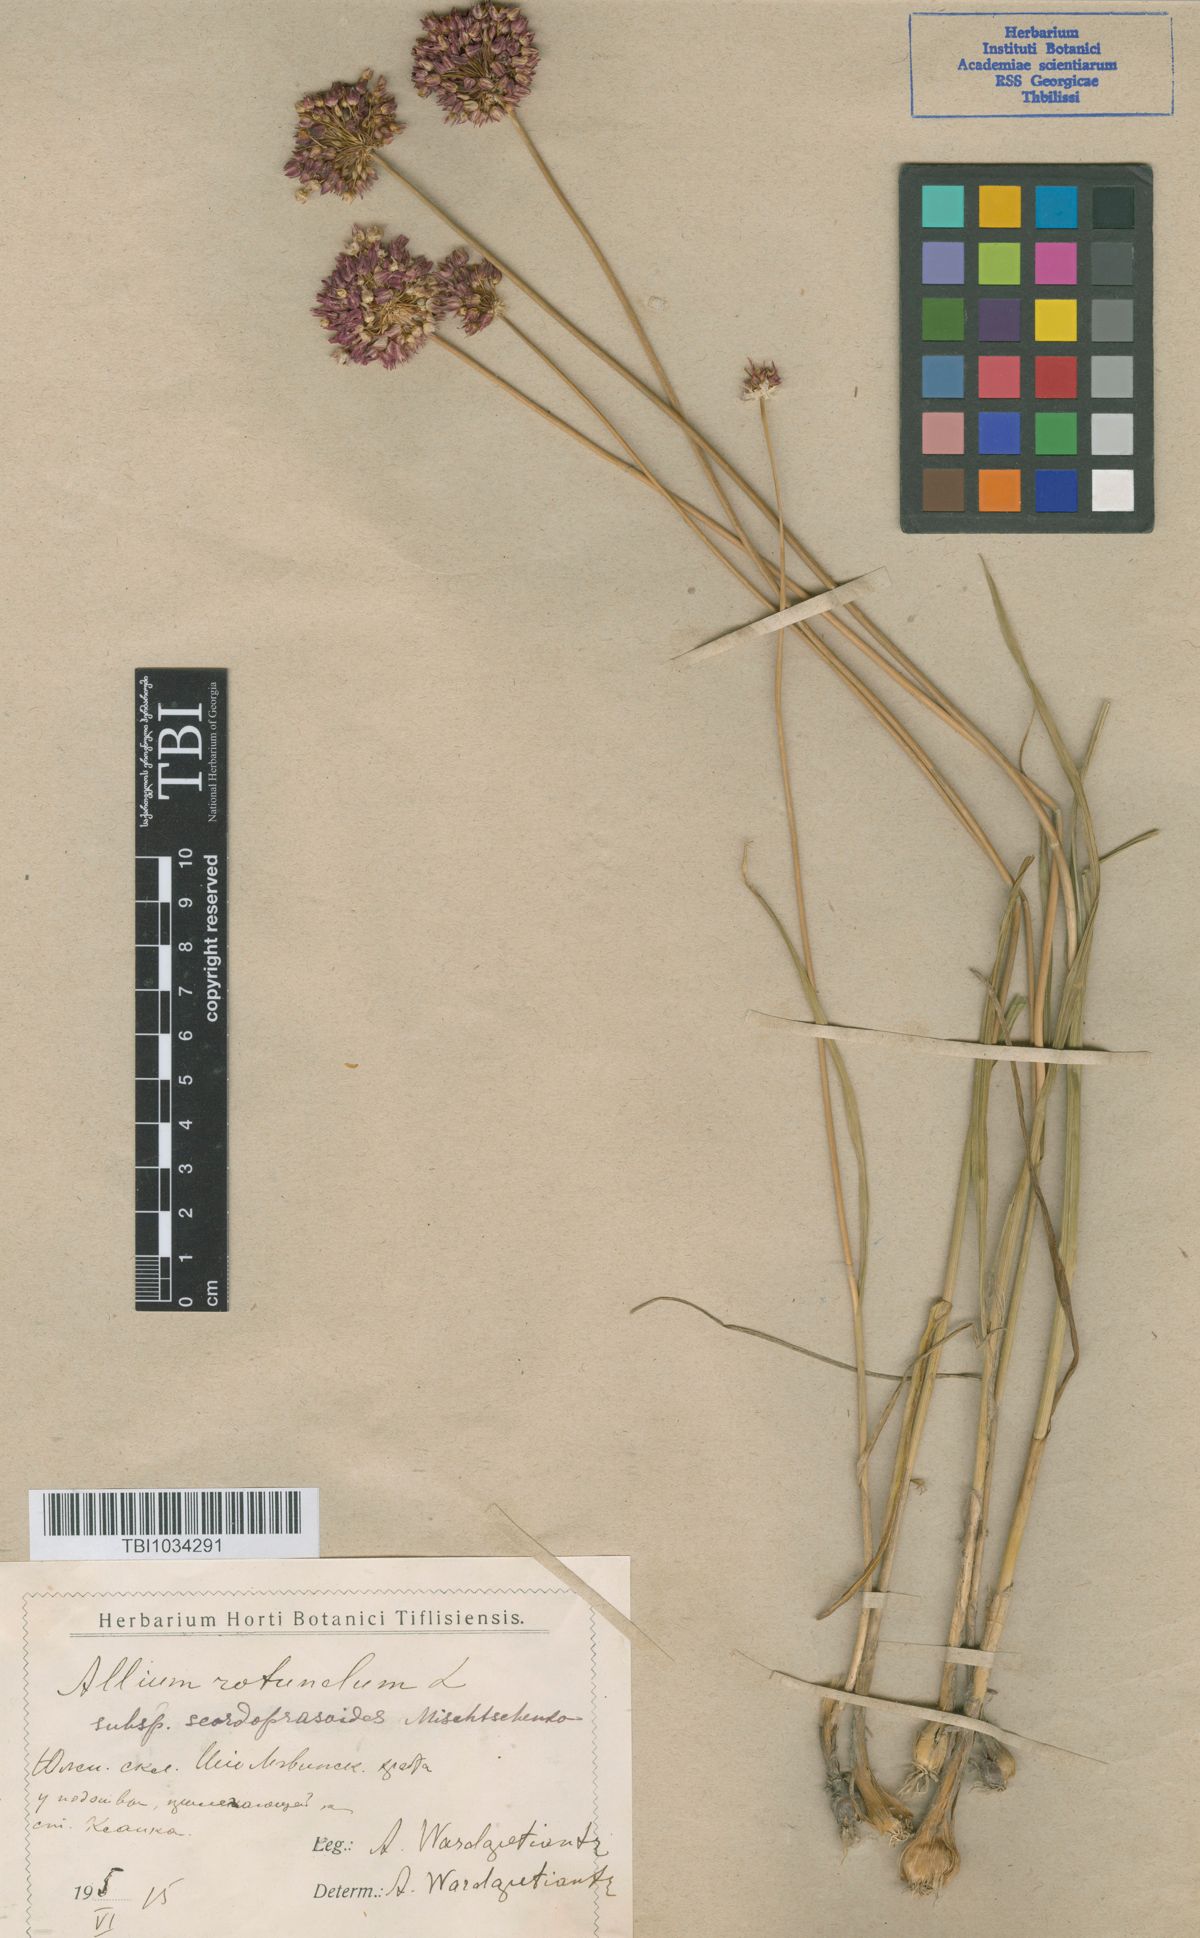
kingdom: Plantae
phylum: Tracheophyta
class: Liliopsida
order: Asparagales
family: Amaryllidaceae
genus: Allium
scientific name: Allium rotundum
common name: Sand leek
